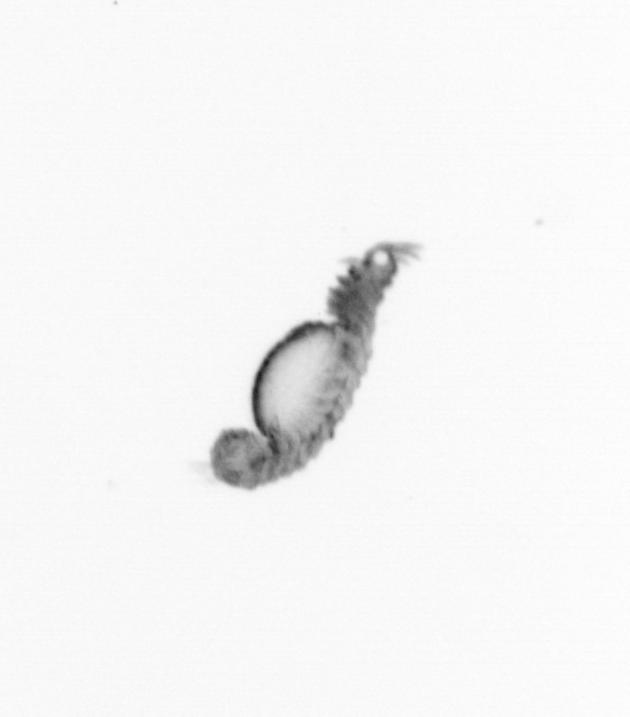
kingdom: Animalia
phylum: Annelida
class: Polychaeta
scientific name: Polychaeta
